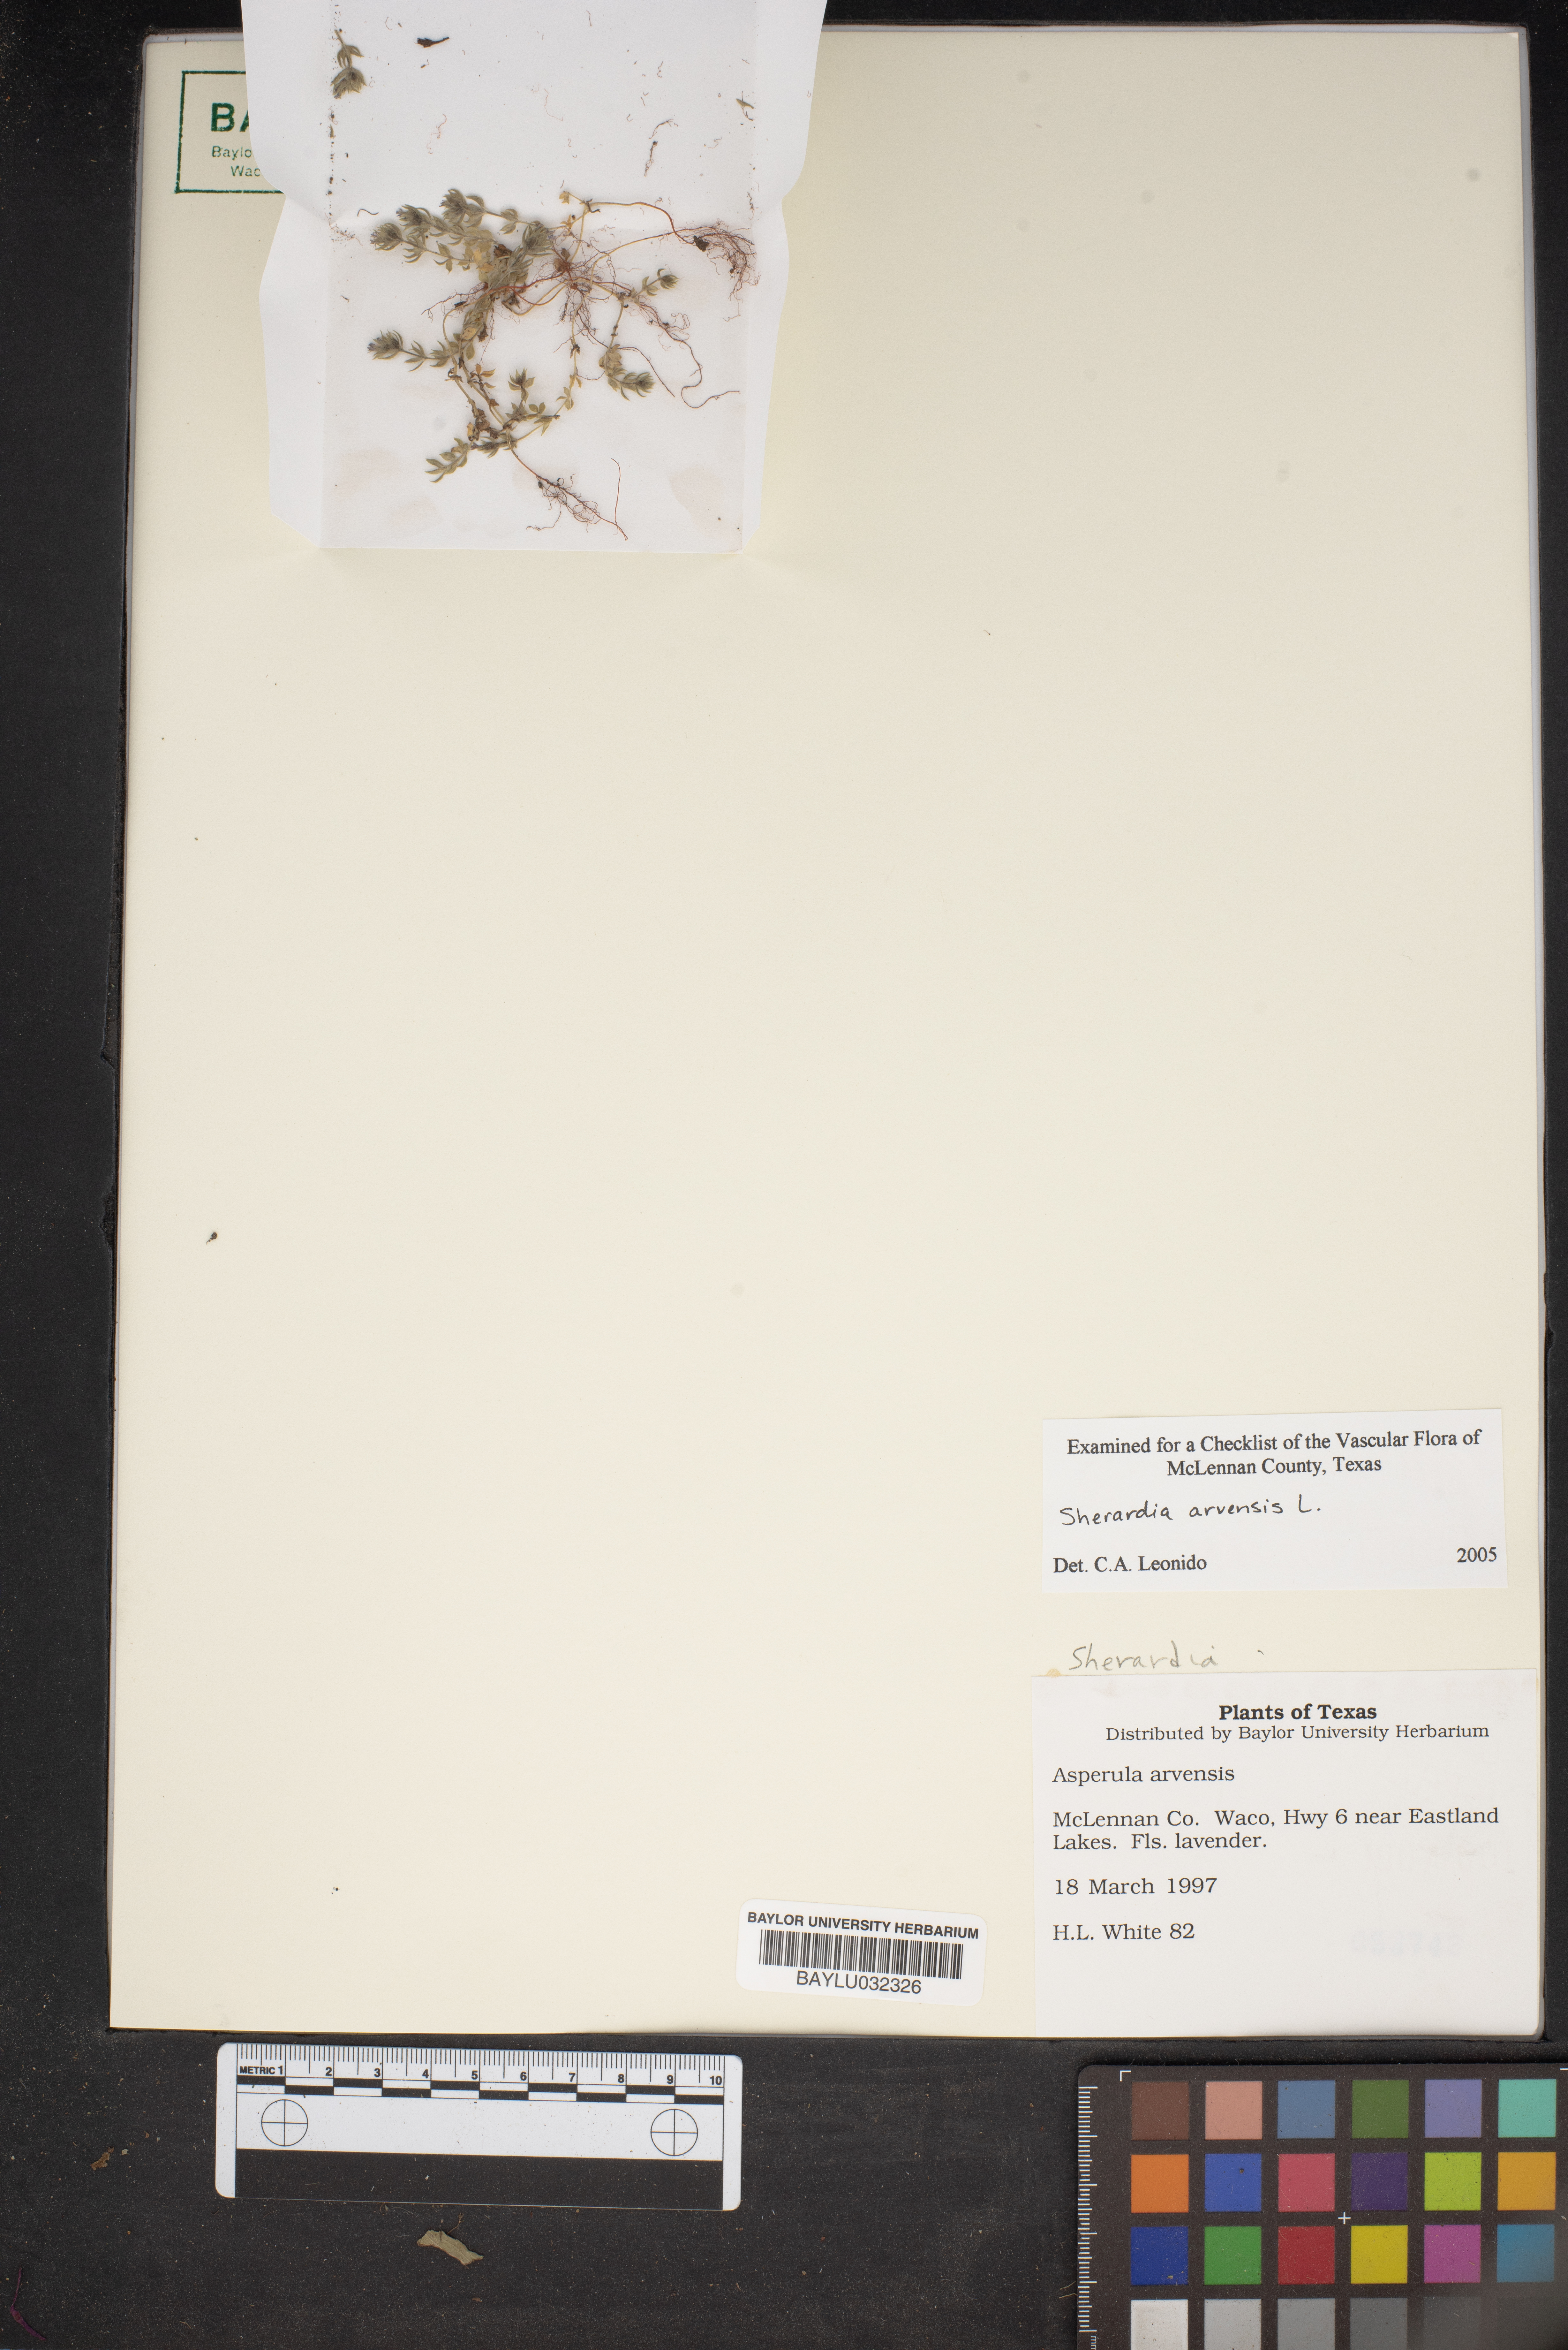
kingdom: Plantae
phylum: Tracheophyta
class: Magnoliopsida
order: Gentianales
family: Rubiaceae
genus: Sherardia
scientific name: Sherardia arvensis
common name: Field madder
